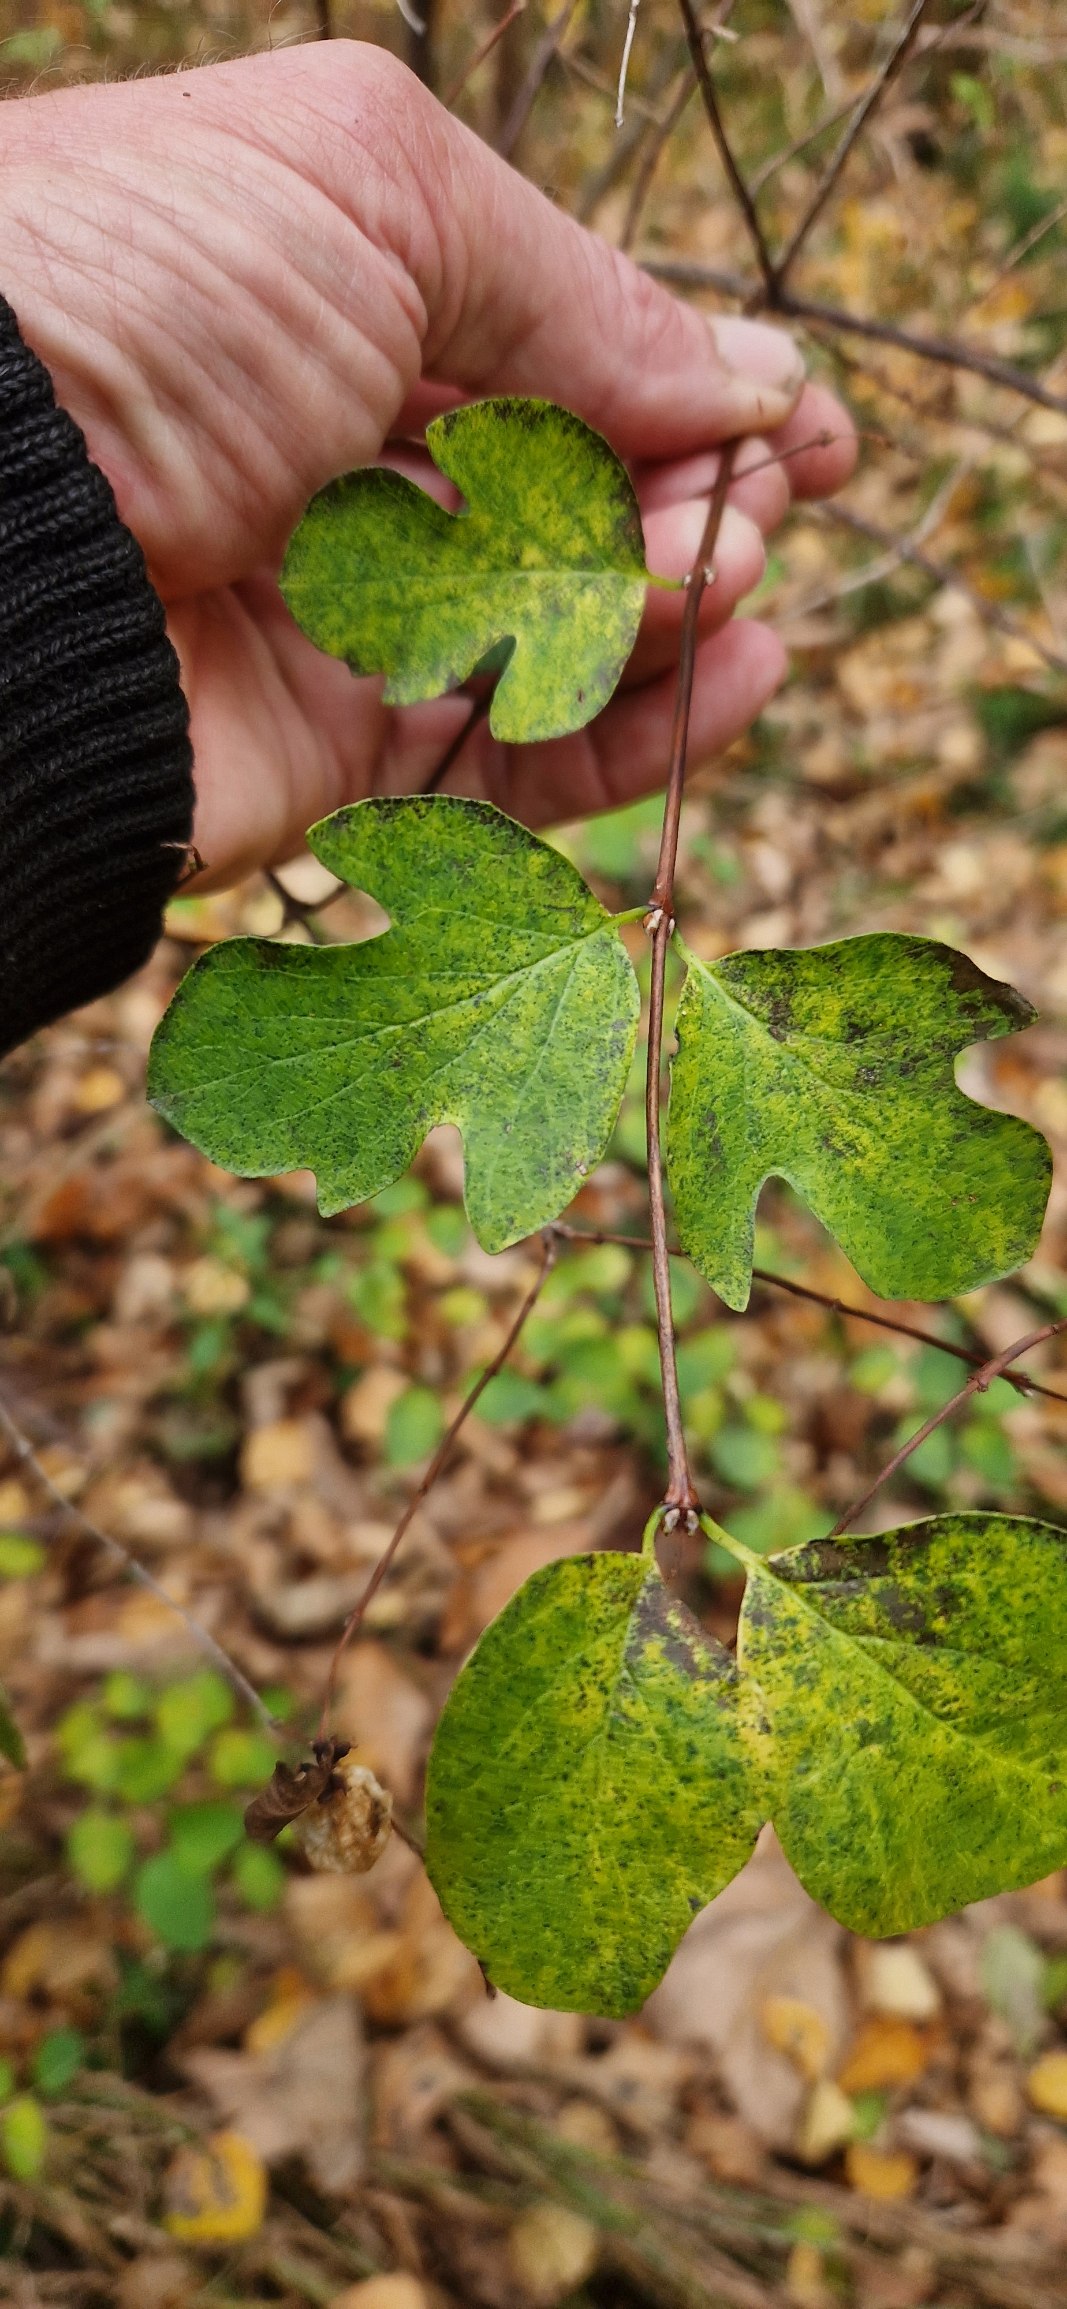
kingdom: Plantae
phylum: Tracheophyta
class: Magnoliopsida
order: Dipsacales
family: Caprifoliaceae
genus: Symphoricarpos
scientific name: Symphoricarpos albus
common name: Almindelig snebær
